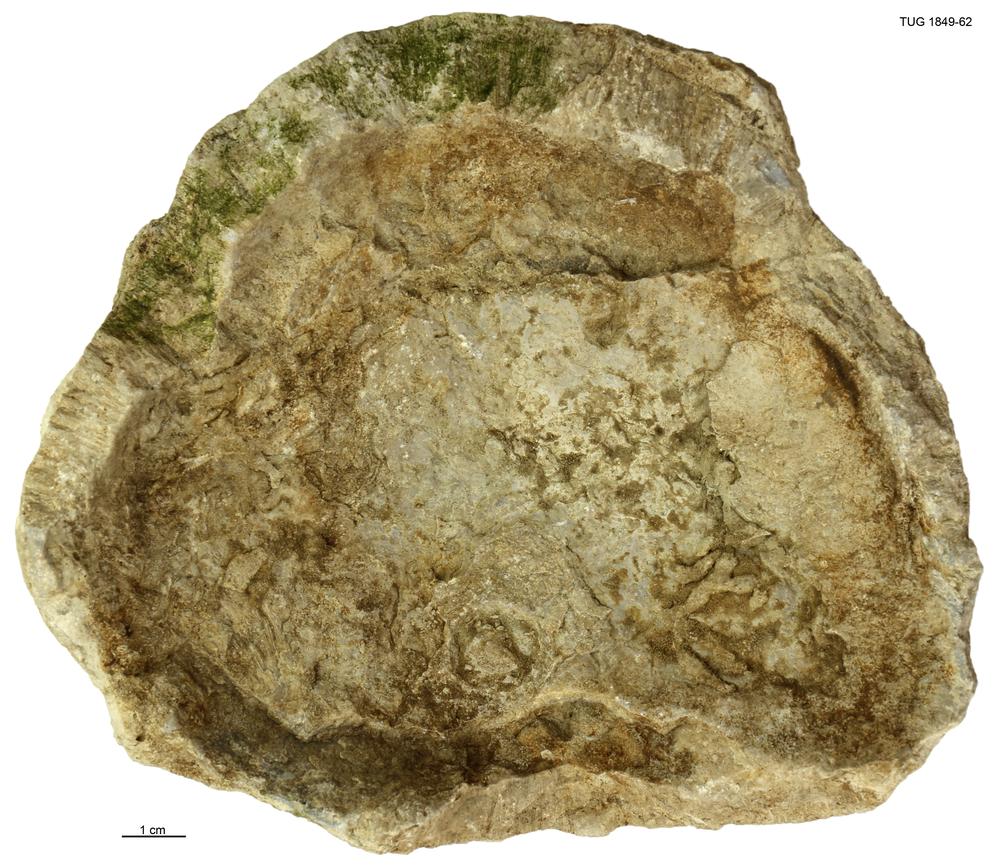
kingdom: Animalia
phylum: Cnidaria
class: Anthozoa
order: Heliolitina
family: Heliolitidae
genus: Heliolites
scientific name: Heliolites
